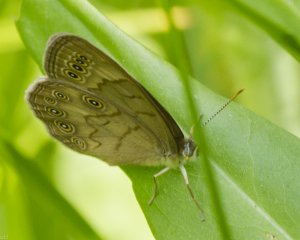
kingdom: Animalia
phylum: Arthropoda
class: Insecta
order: Lepidoptera
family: Nymphalidae
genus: Lethe
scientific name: Lethe eurydice
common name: Eyed Brown
